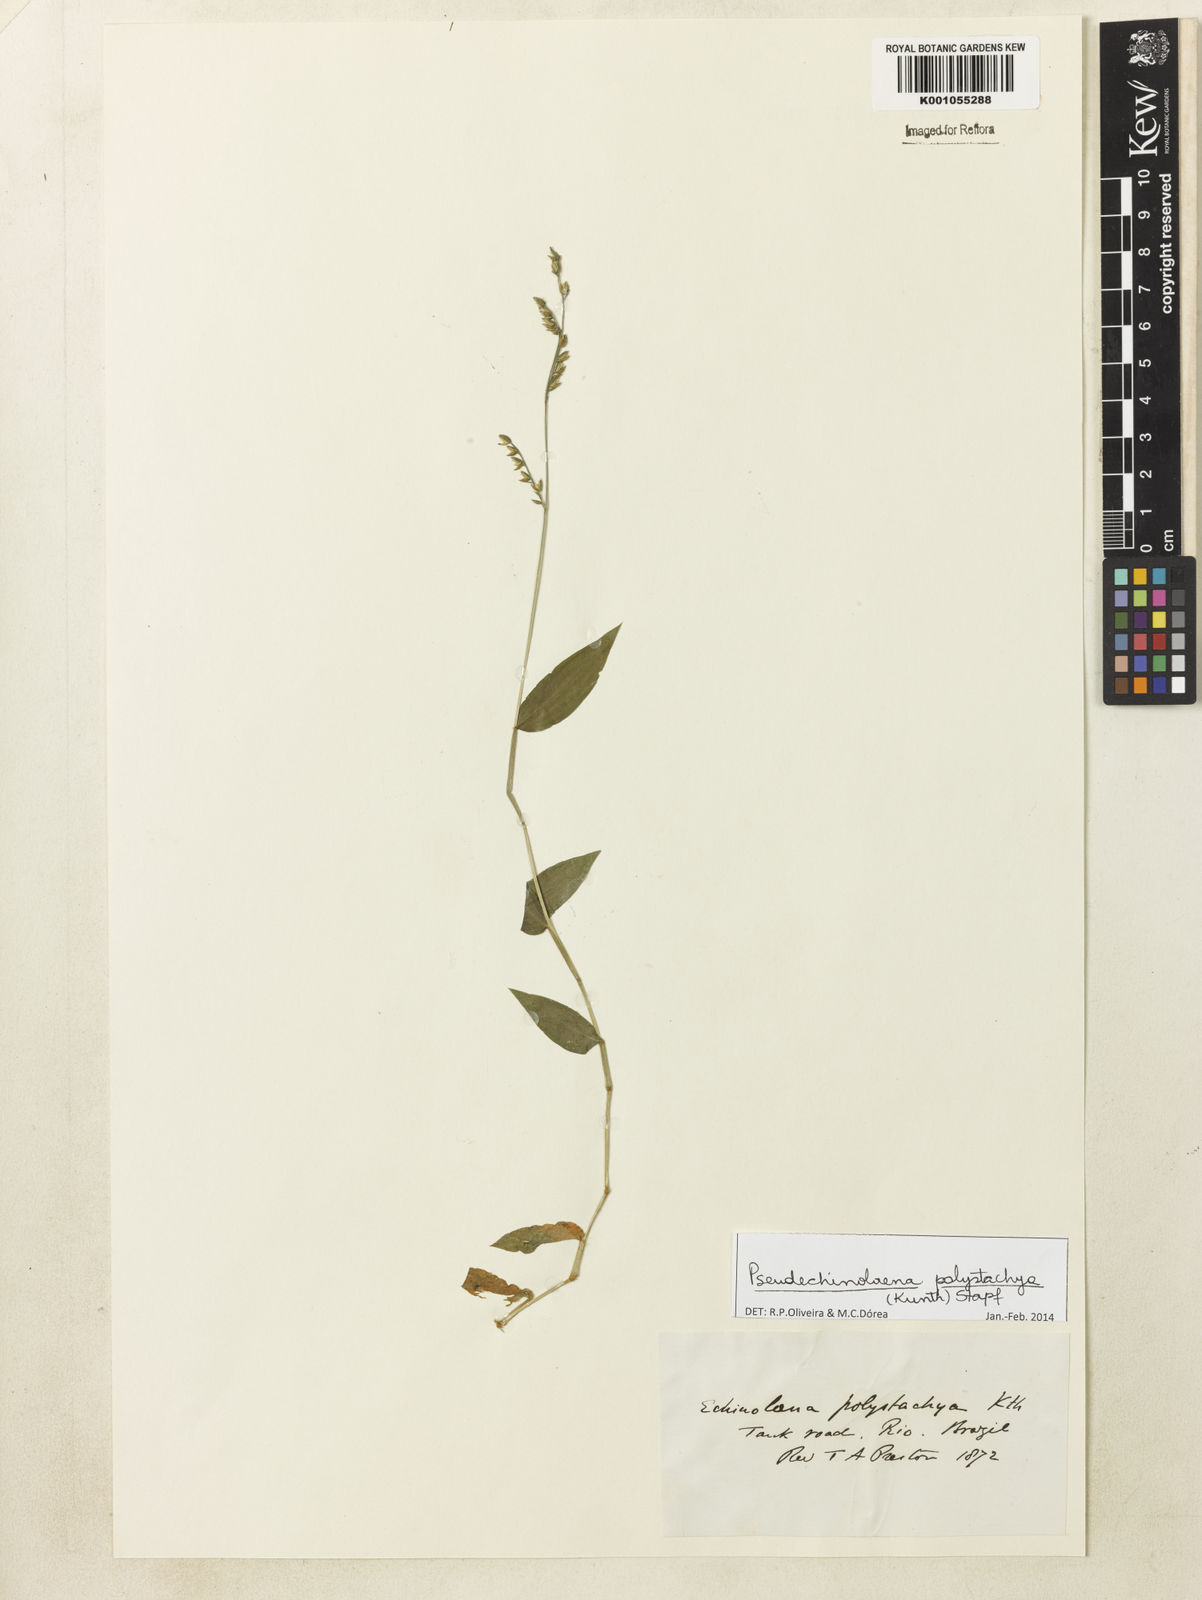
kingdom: Plantae
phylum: Tracheophyta
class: Liliopsida
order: Poales
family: Poaceae
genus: Pseudechinolaena
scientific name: Pseudechinolaena polystachya
